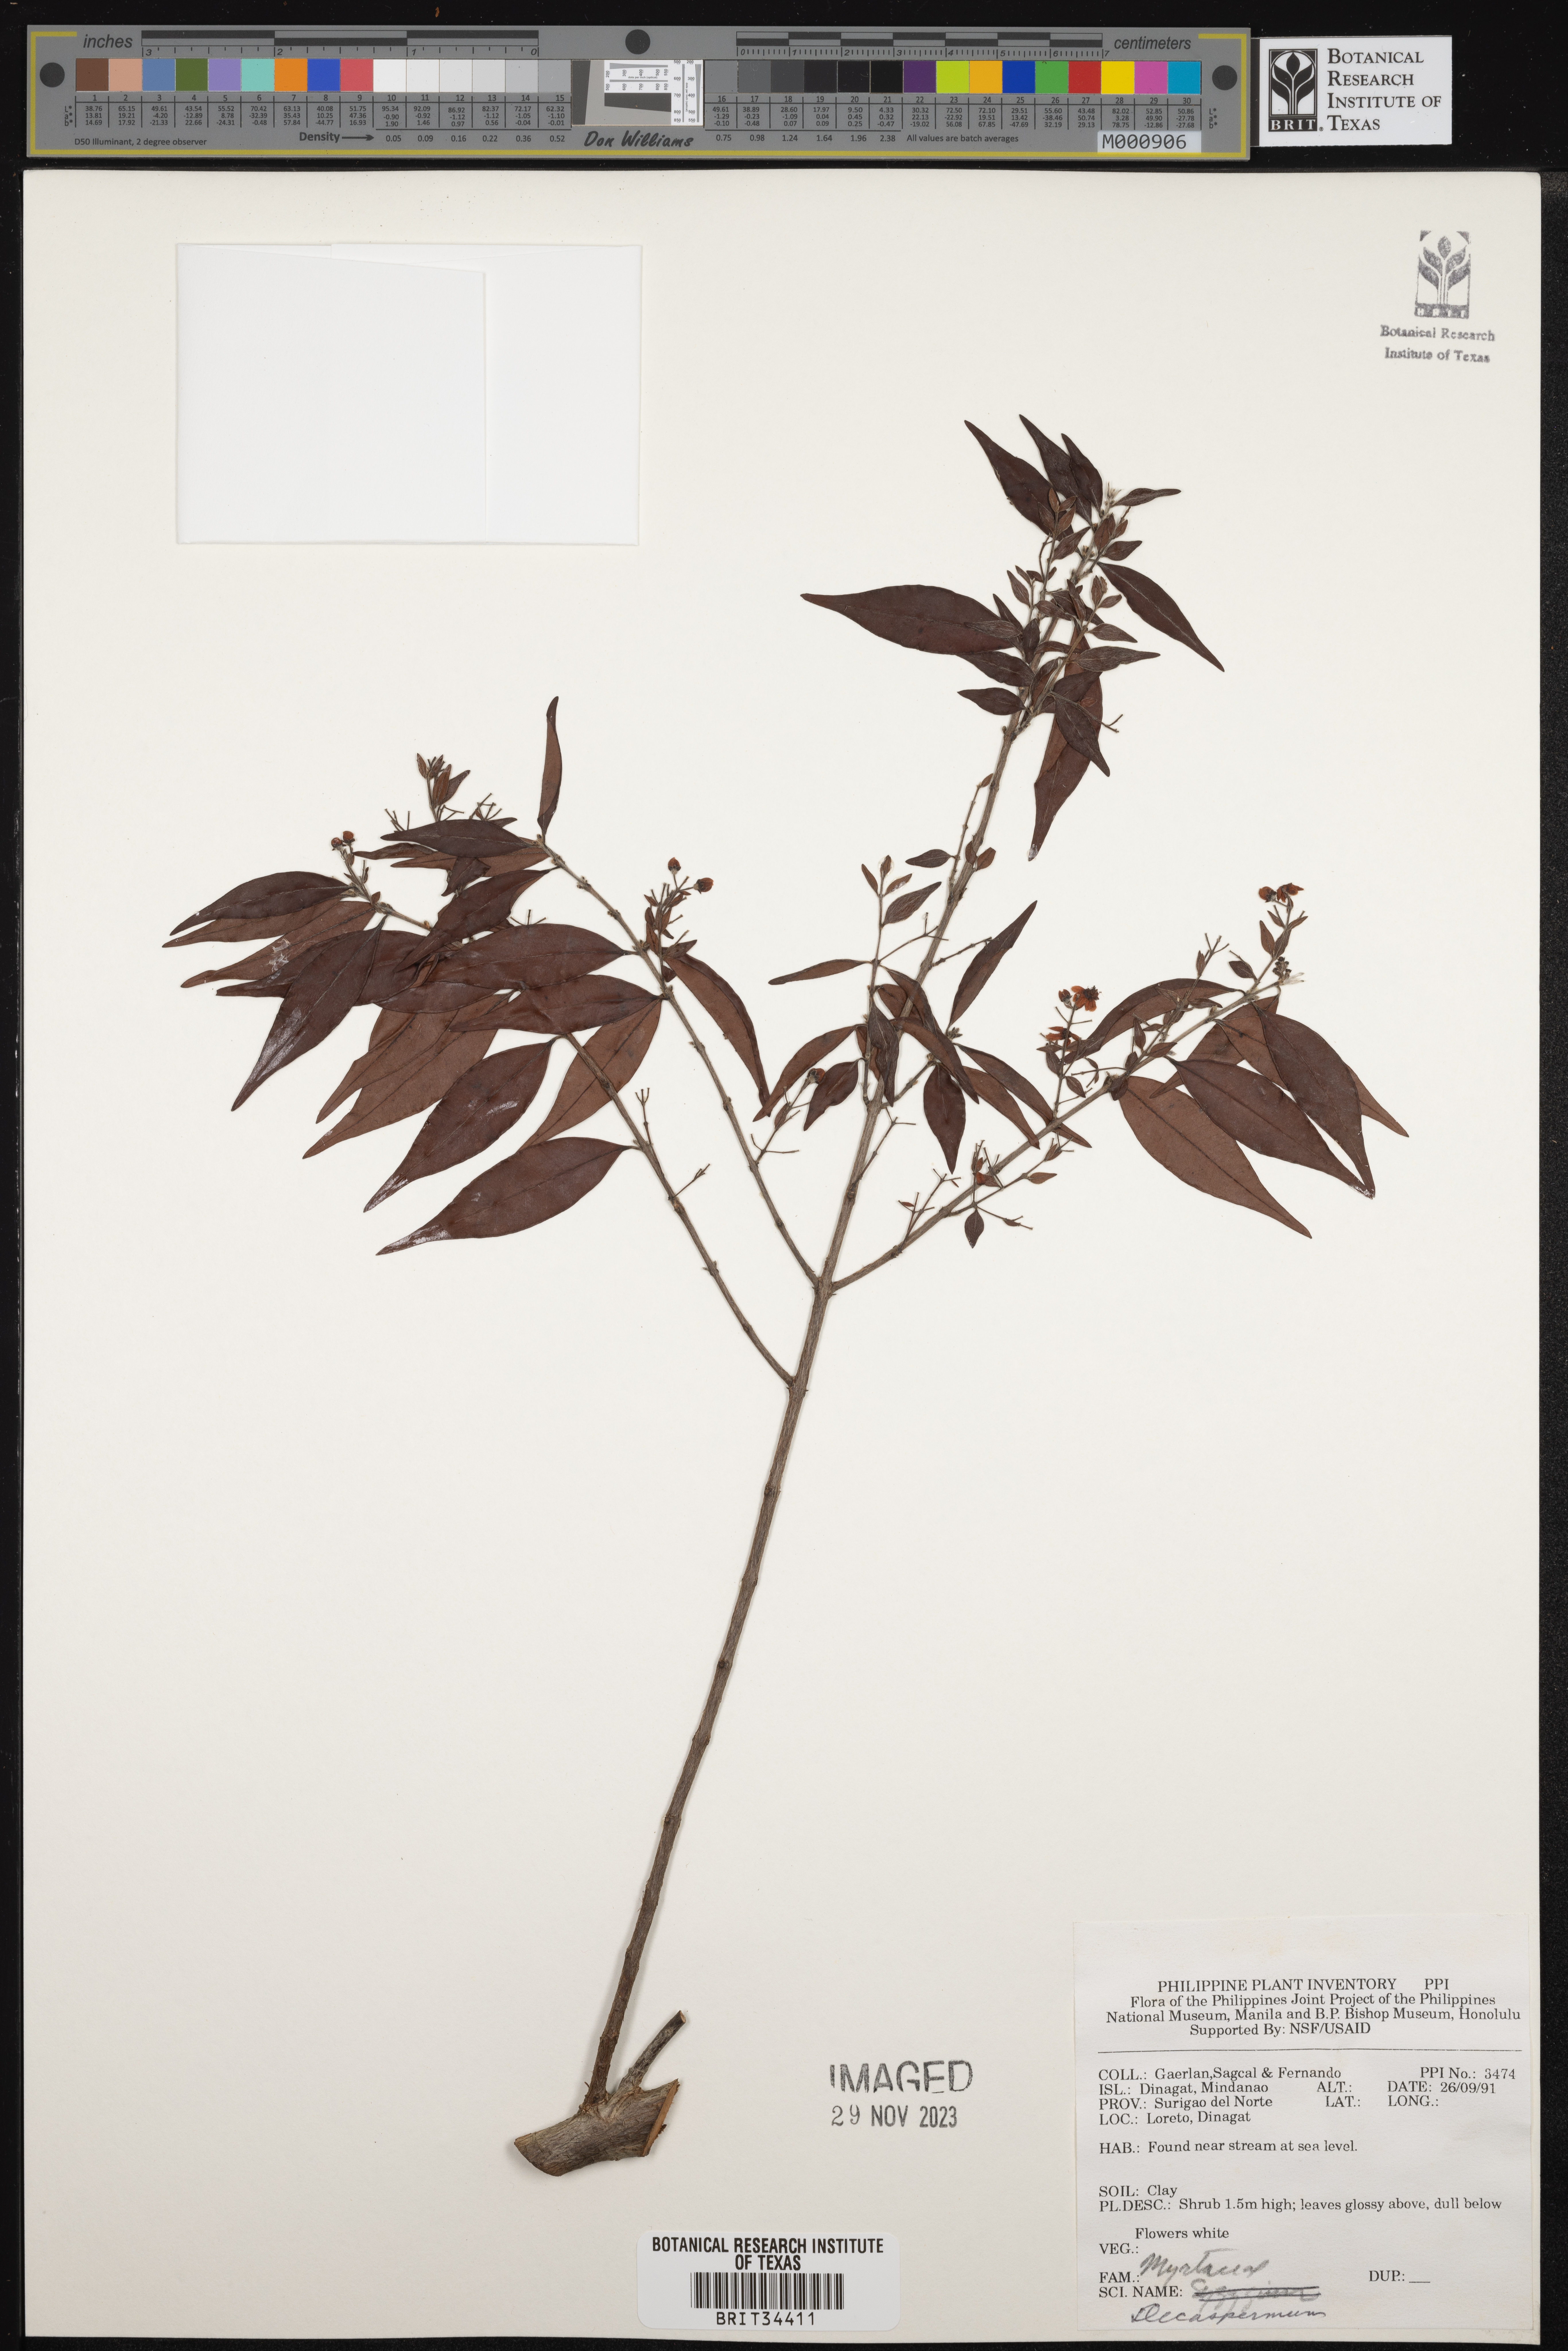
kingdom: Plantae
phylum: Tracheophyta
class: Magnoliopsida
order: Myrtales
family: Myrtaceae
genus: Decaspermum
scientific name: Decaspermum
